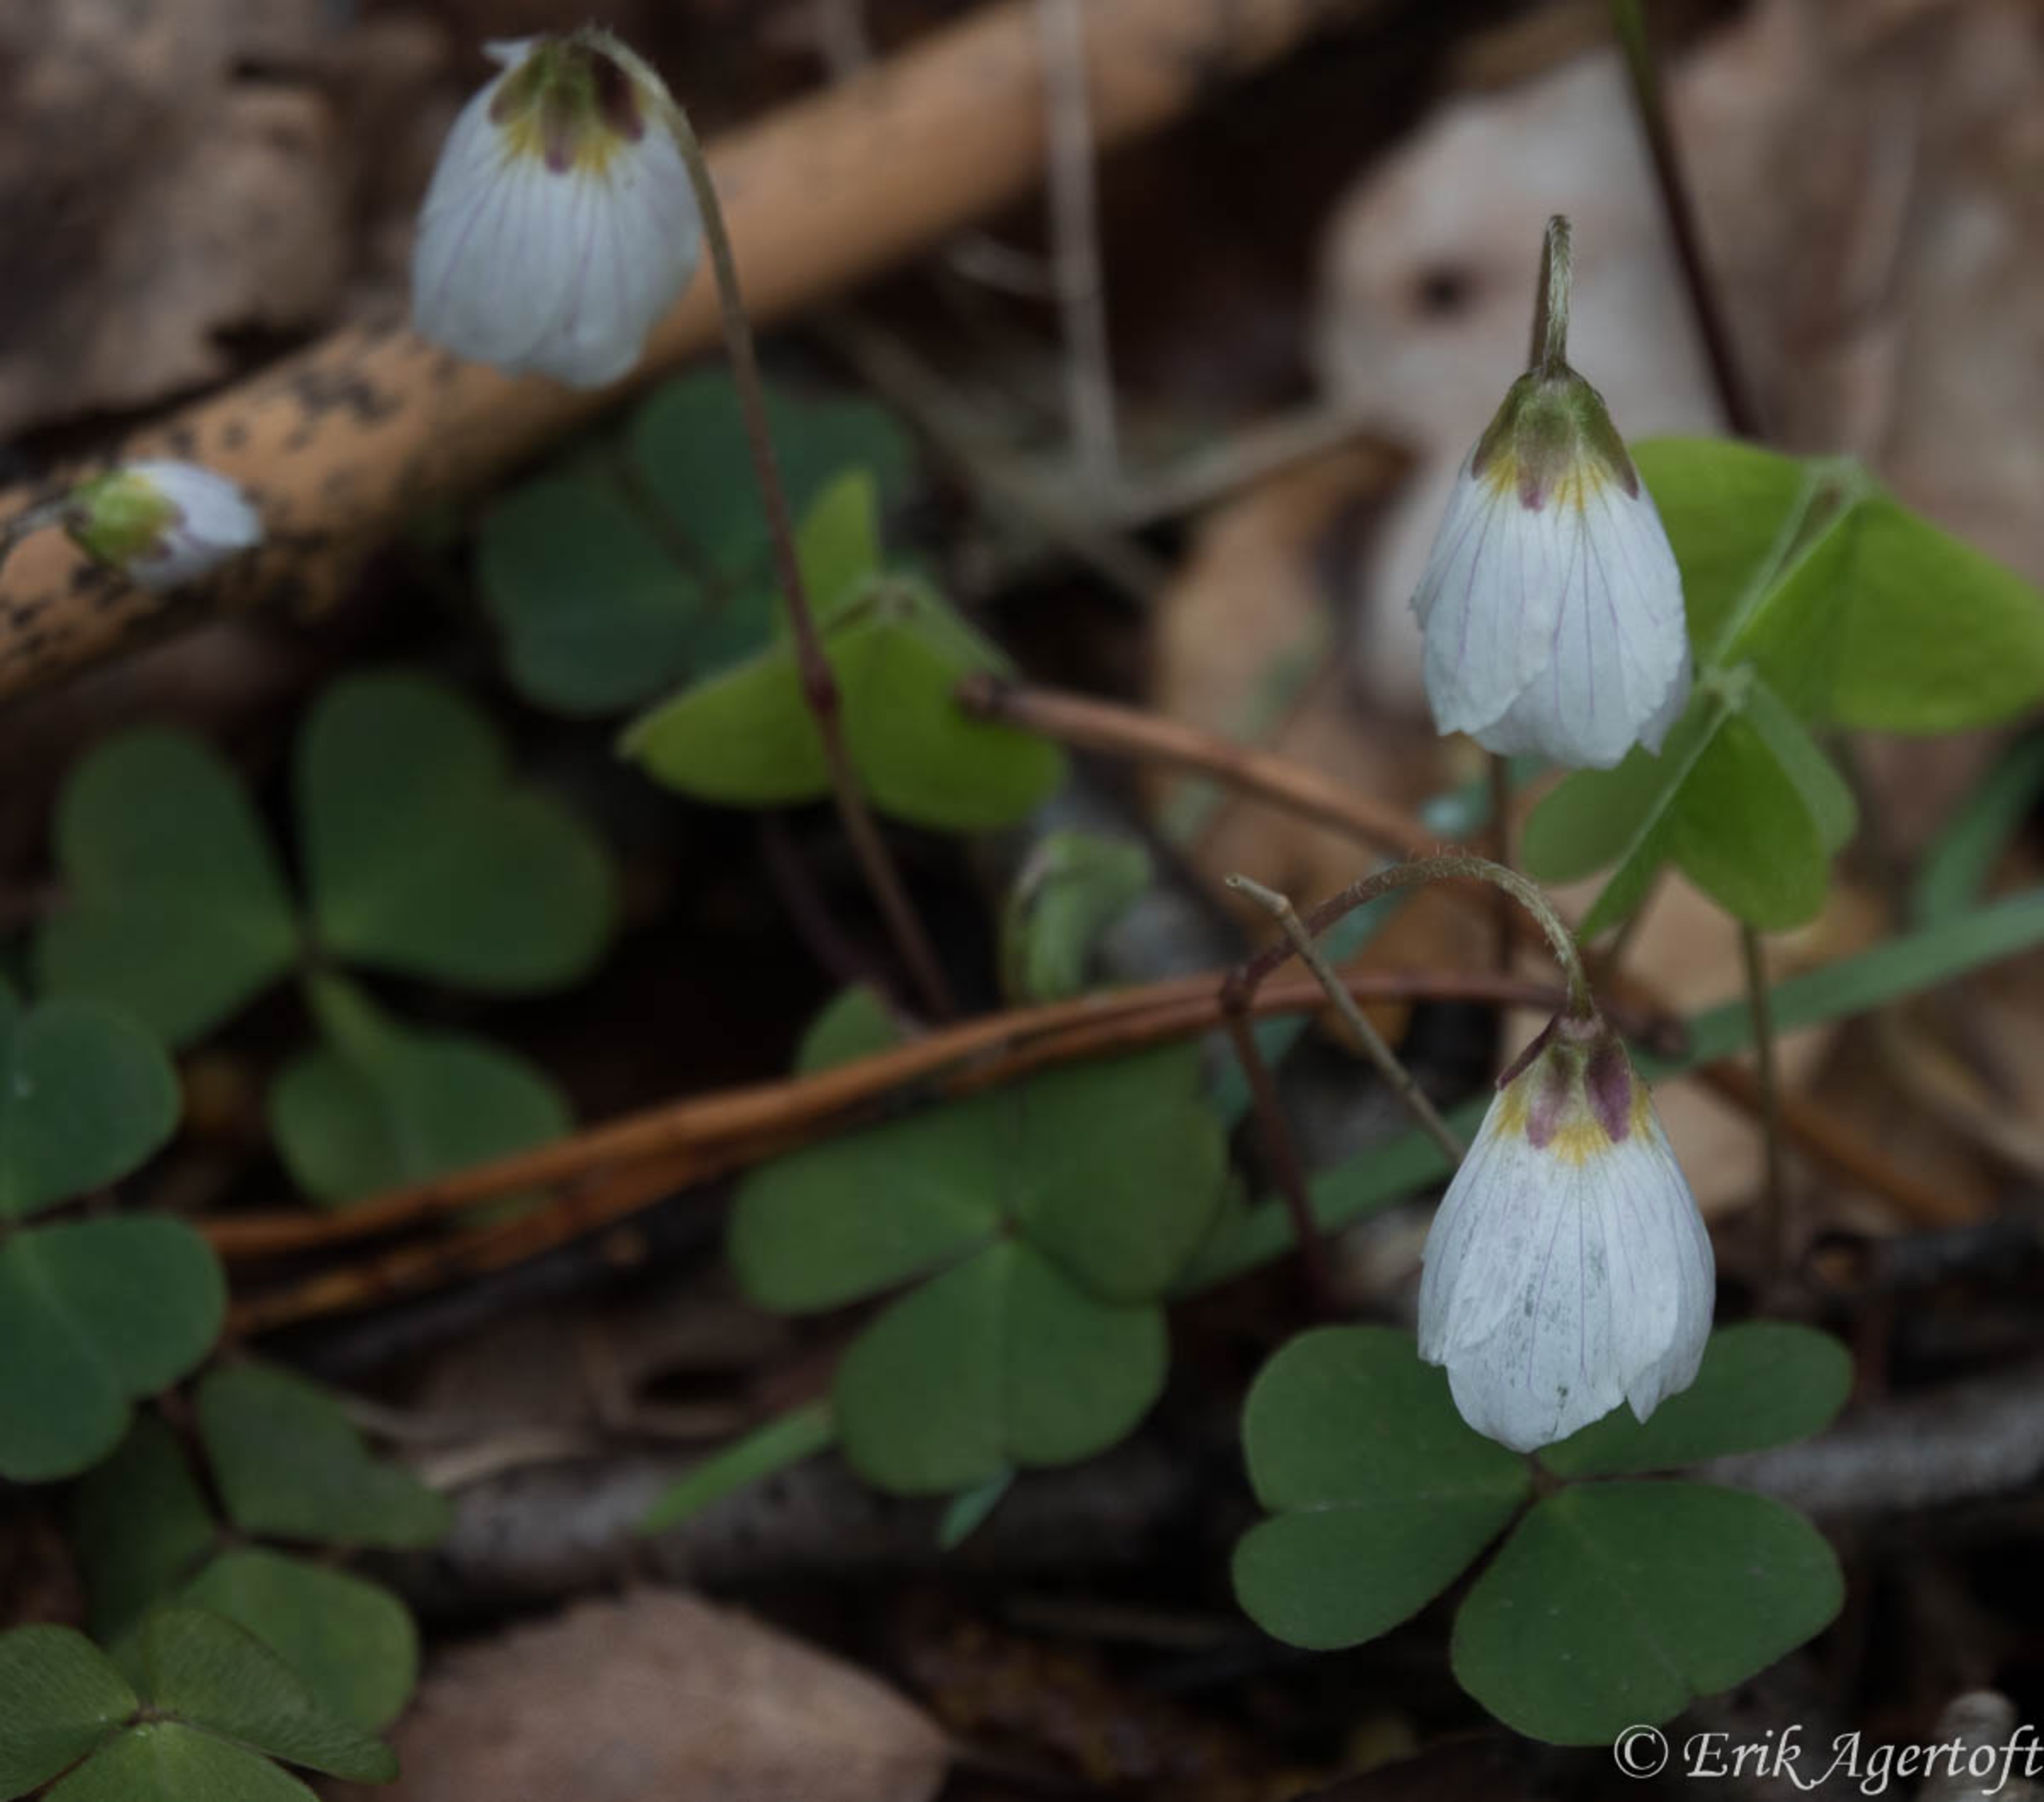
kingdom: Plantae
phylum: Tracheophyta
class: Magnoliopsida
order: Oxalidales
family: Oxalidaceae
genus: Oxalis
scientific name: Oxalis acetosella
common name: Skovsyre
